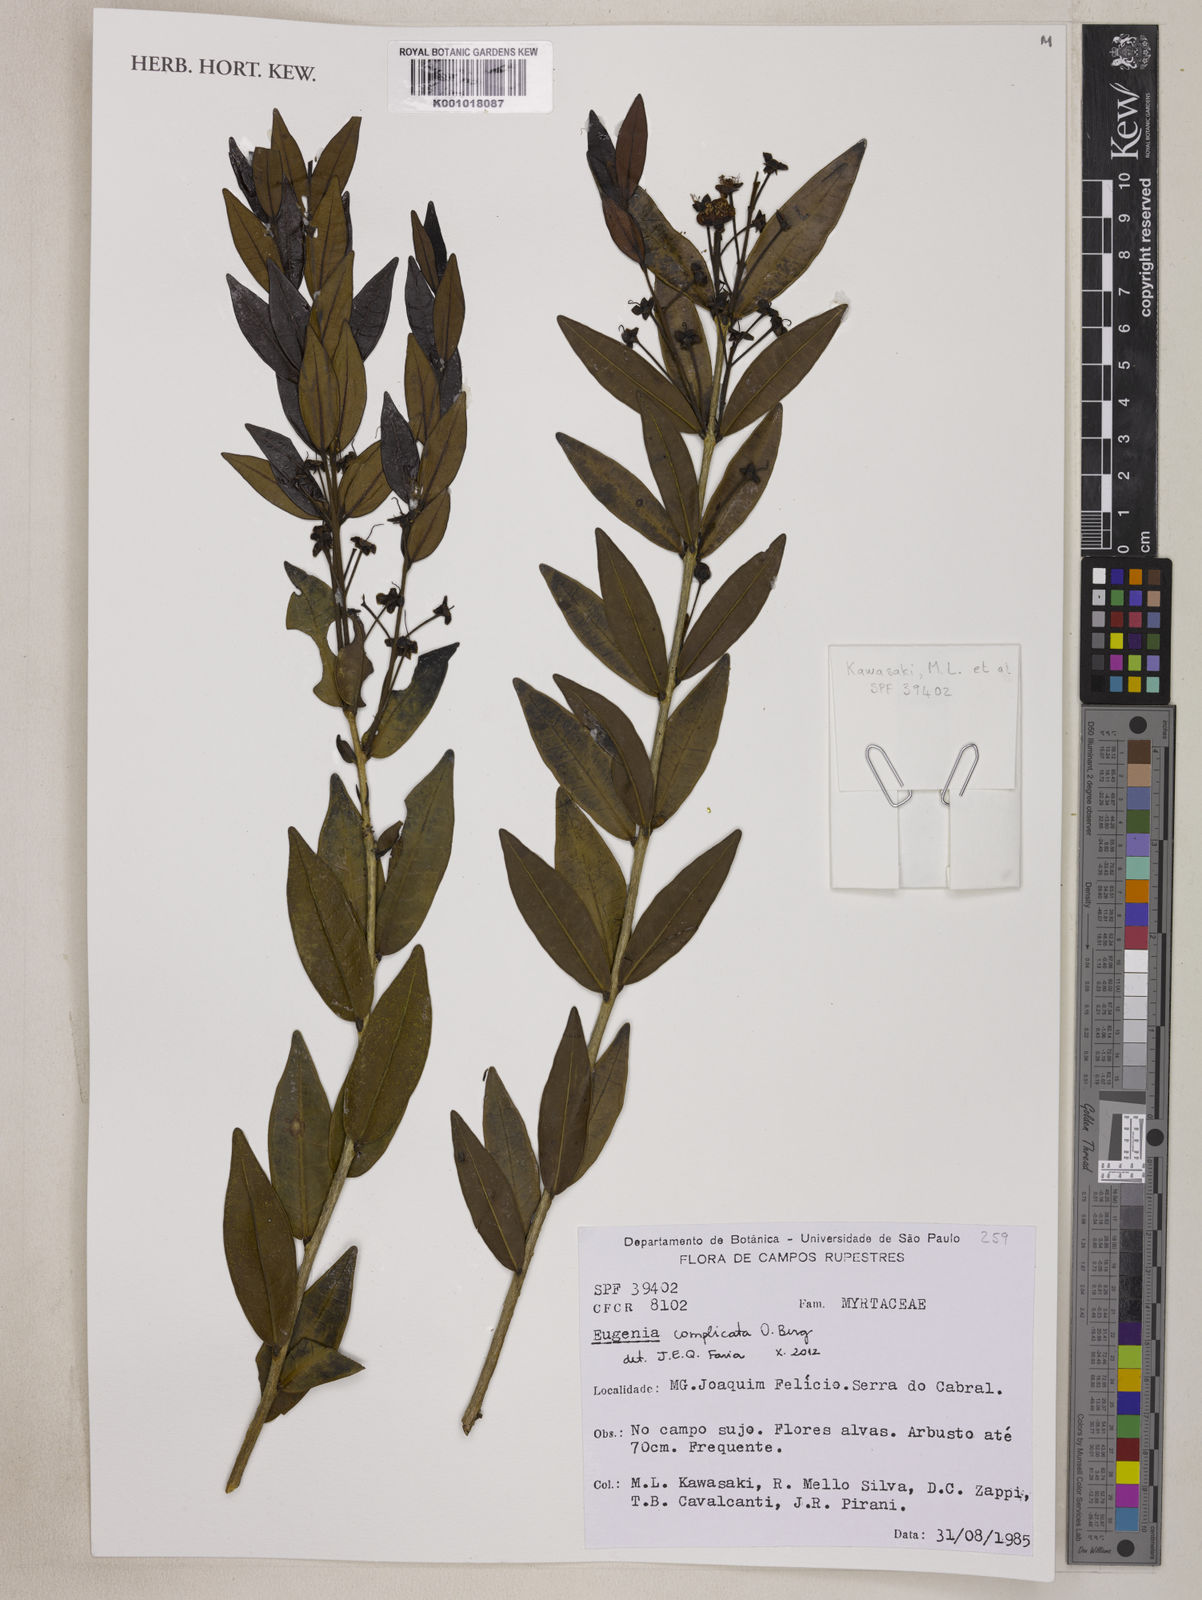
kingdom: Plantae
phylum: Tracheophyta
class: Magnoliopsida
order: Myrtales
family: Myrtaceae
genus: Eugenia
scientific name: Eugenia complicata
